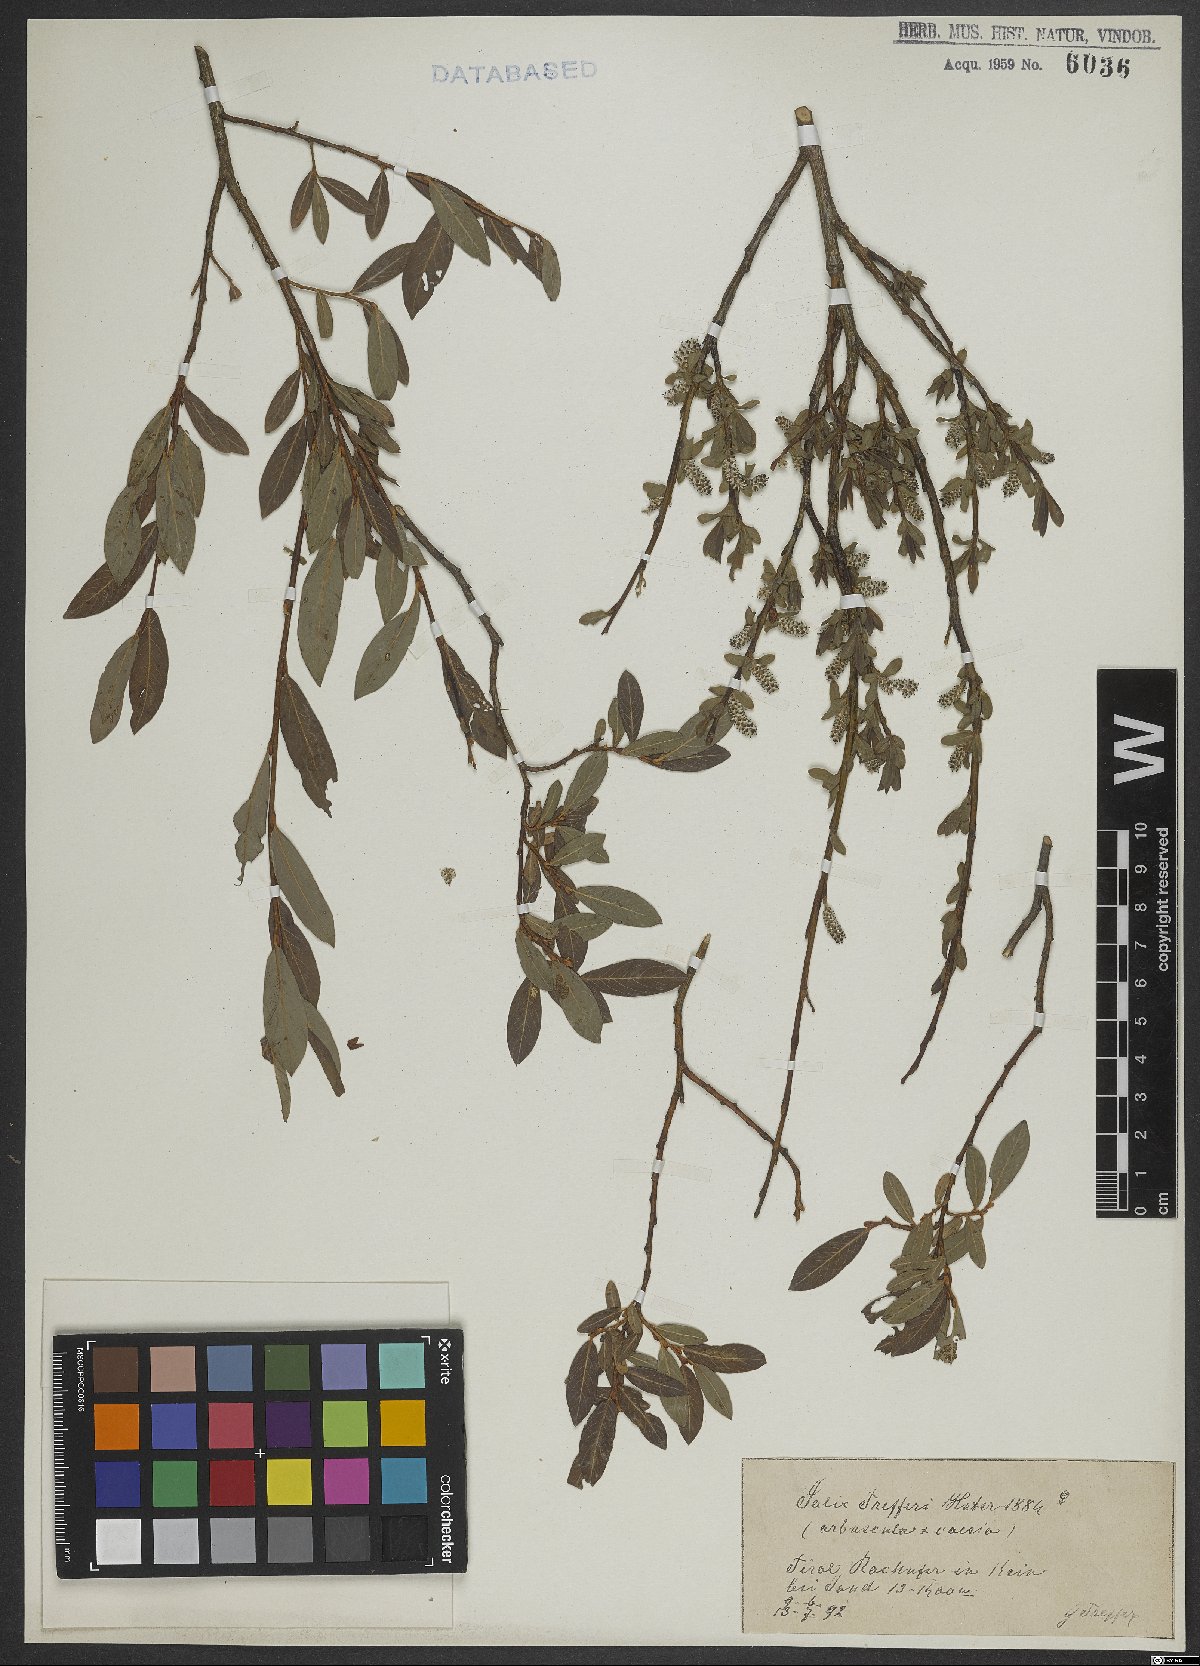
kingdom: Plantae
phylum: Tracheophyta
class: Magnoliopsida
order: Malpighiales
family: Salicaceae
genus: Salix
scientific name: Salix caesia
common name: Blue willow
